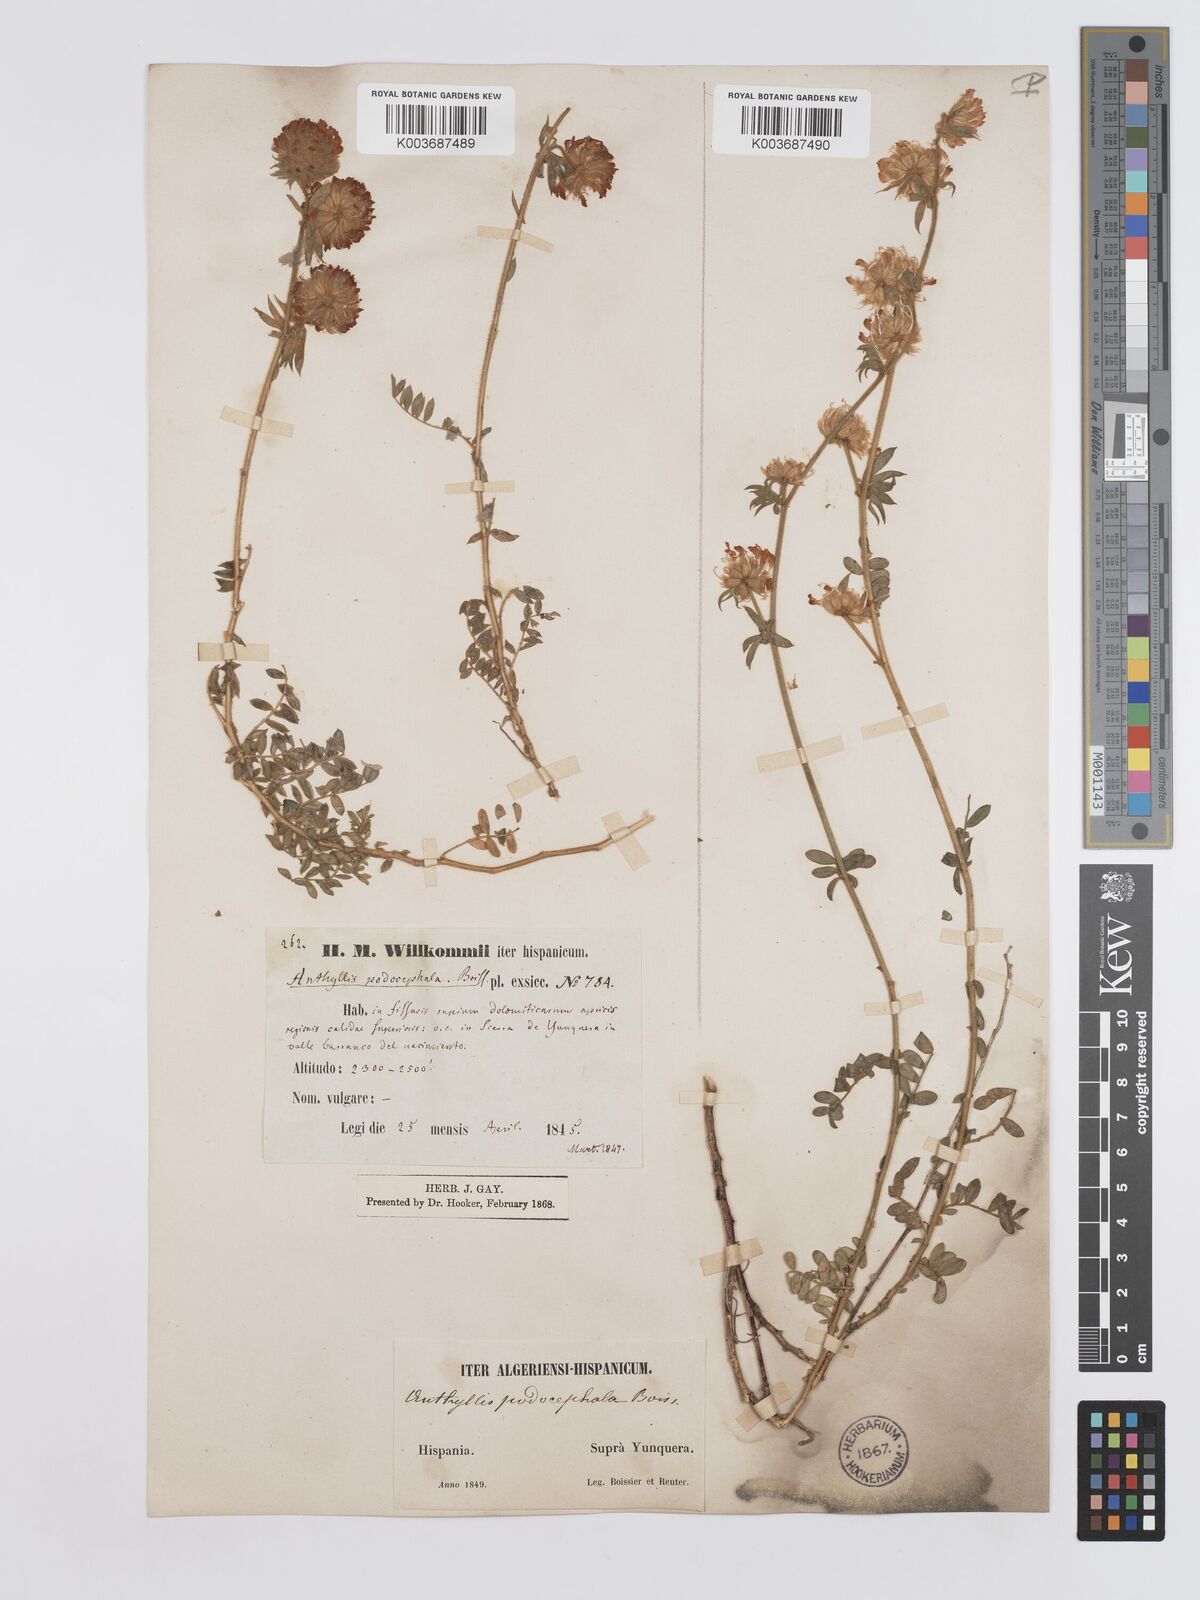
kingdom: Plantae
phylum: Tracheophyta
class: Magnoliopsida
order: Fabales
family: Fabaceae
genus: Anthyllis
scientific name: Anthyllis polycephala
